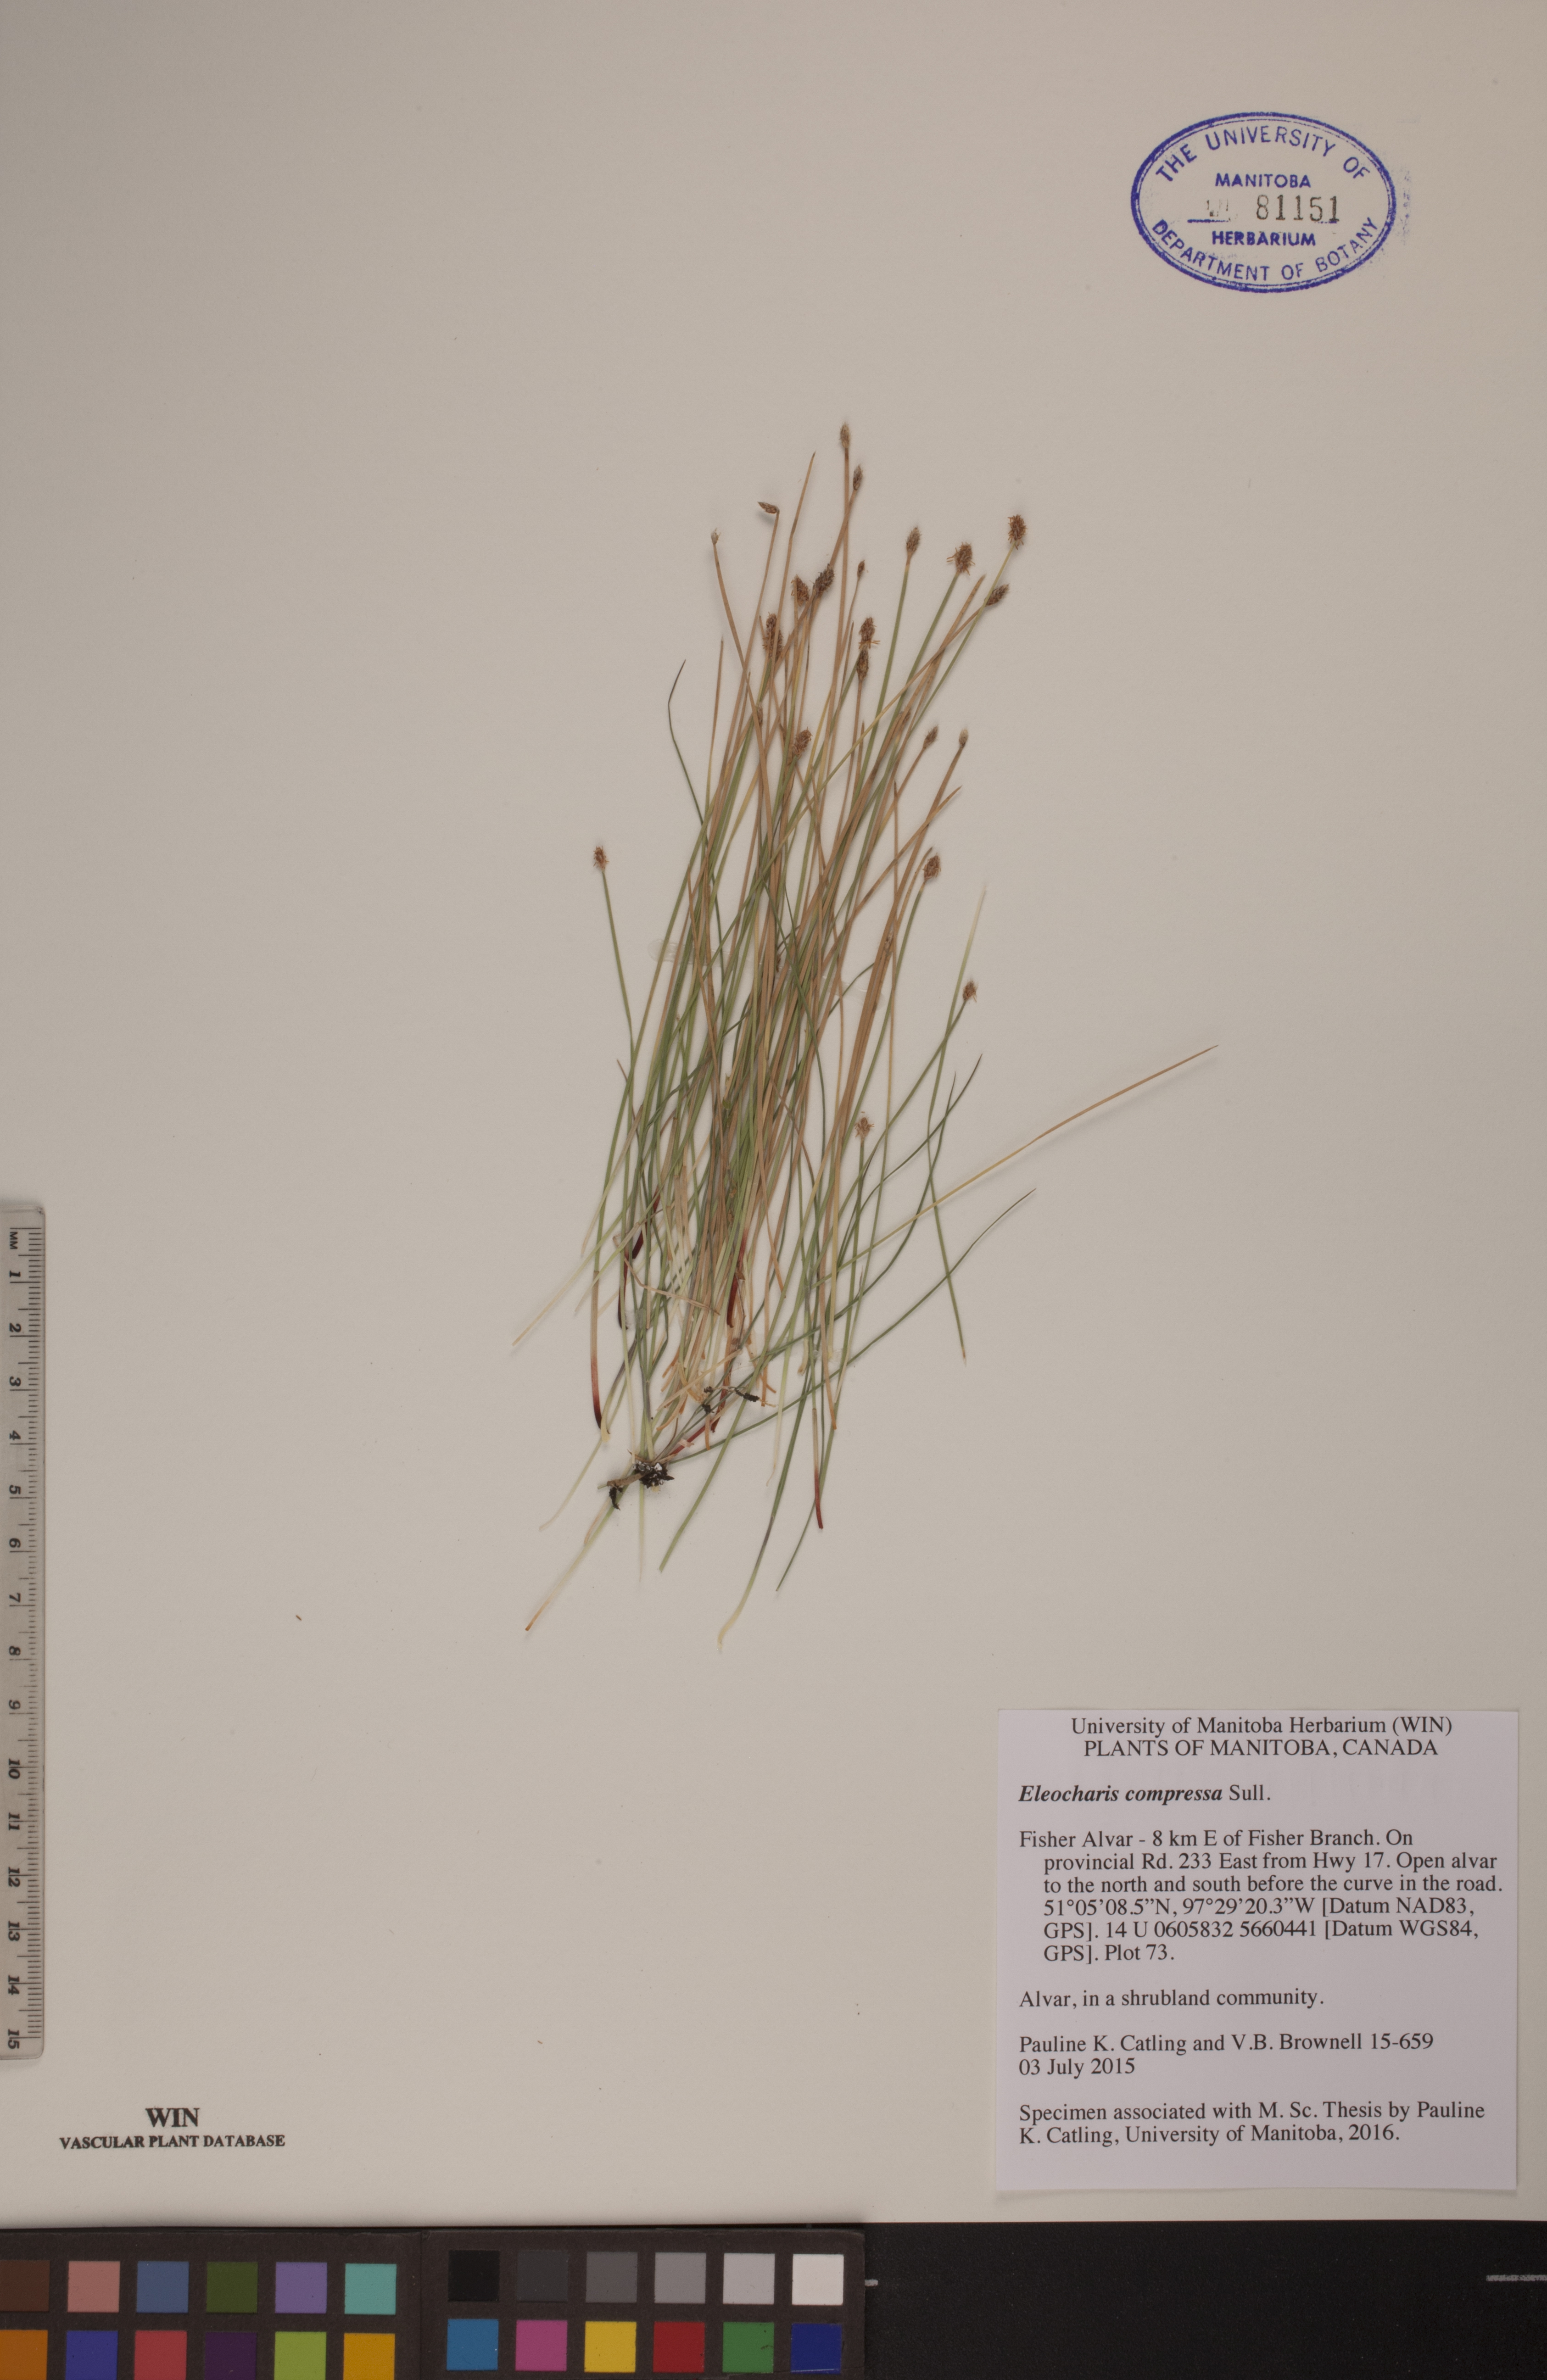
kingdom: Plantae
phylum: Tracheophyta
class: Liliopsida
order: Poales
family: Cyperaceae
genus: Eleocharis
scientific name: Eleocharis compressa
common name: Flat-stem spike-rush
